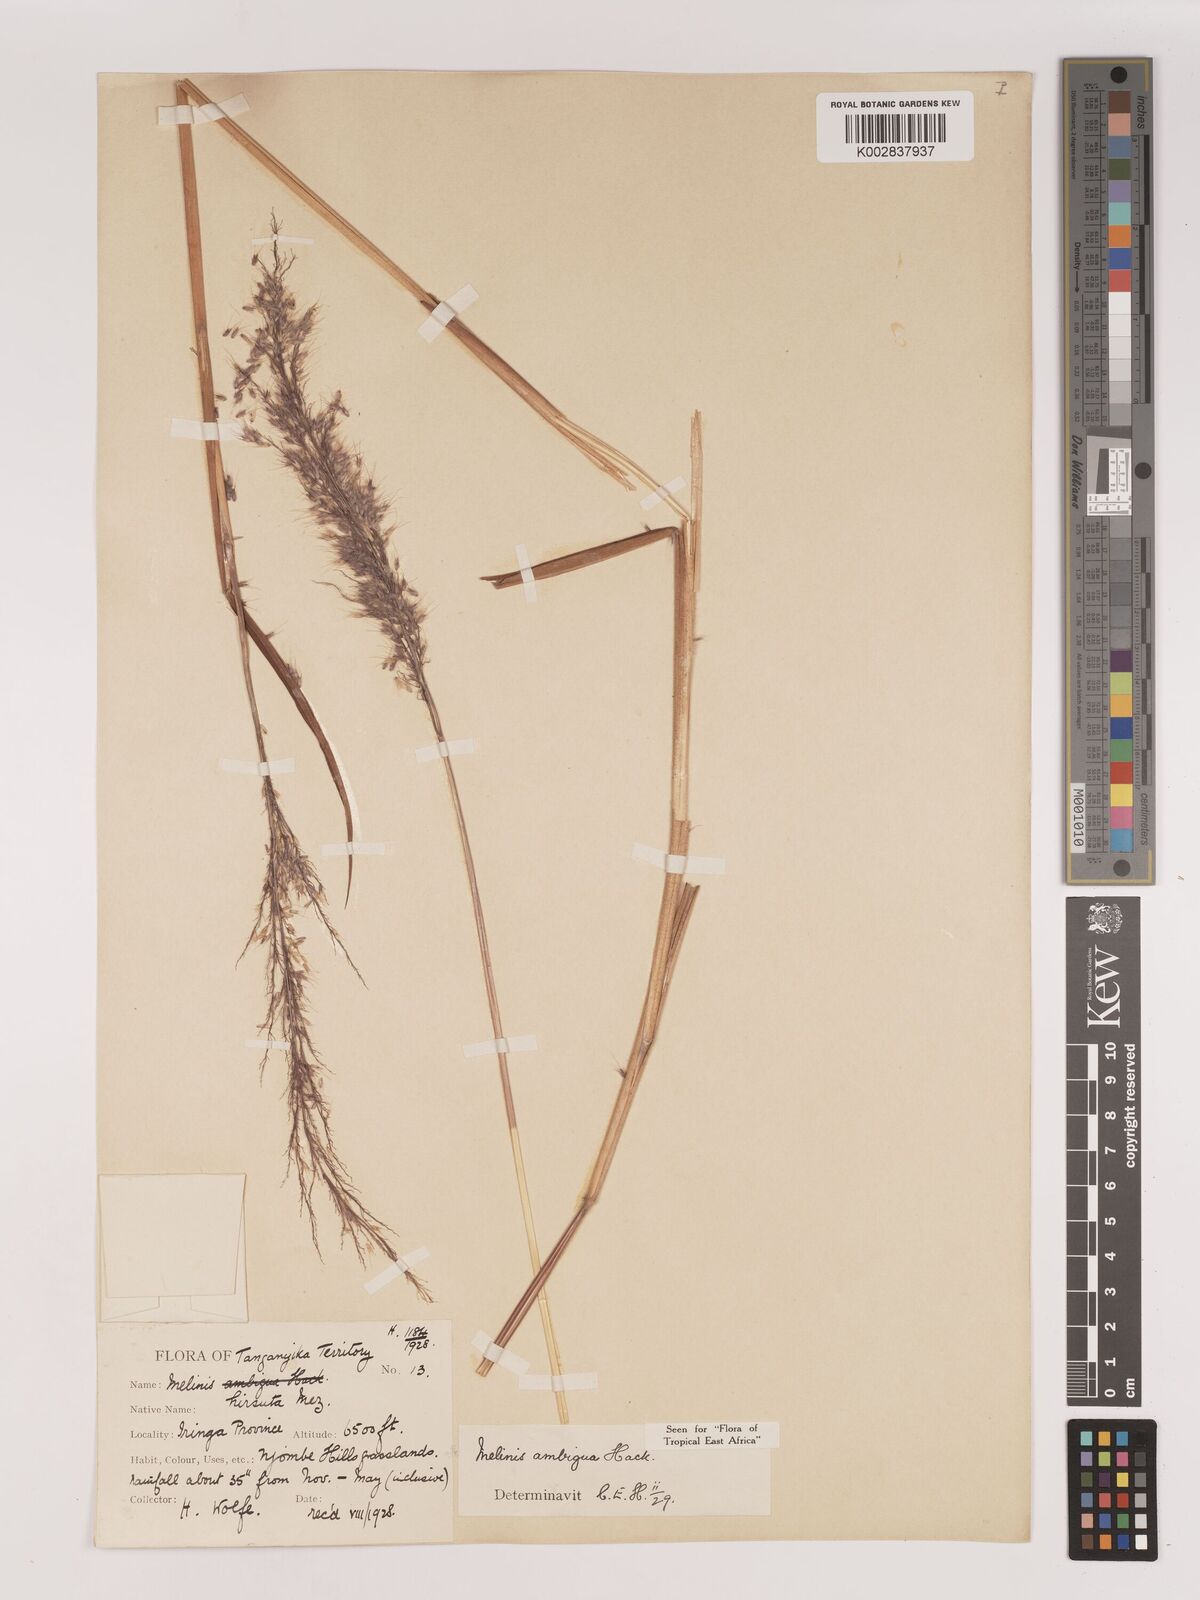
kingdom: Plantae
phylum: Tracheophyta
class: Liliopsida
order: Poales
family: Poaceae
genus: Melinis
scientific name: Melinis ambigua
